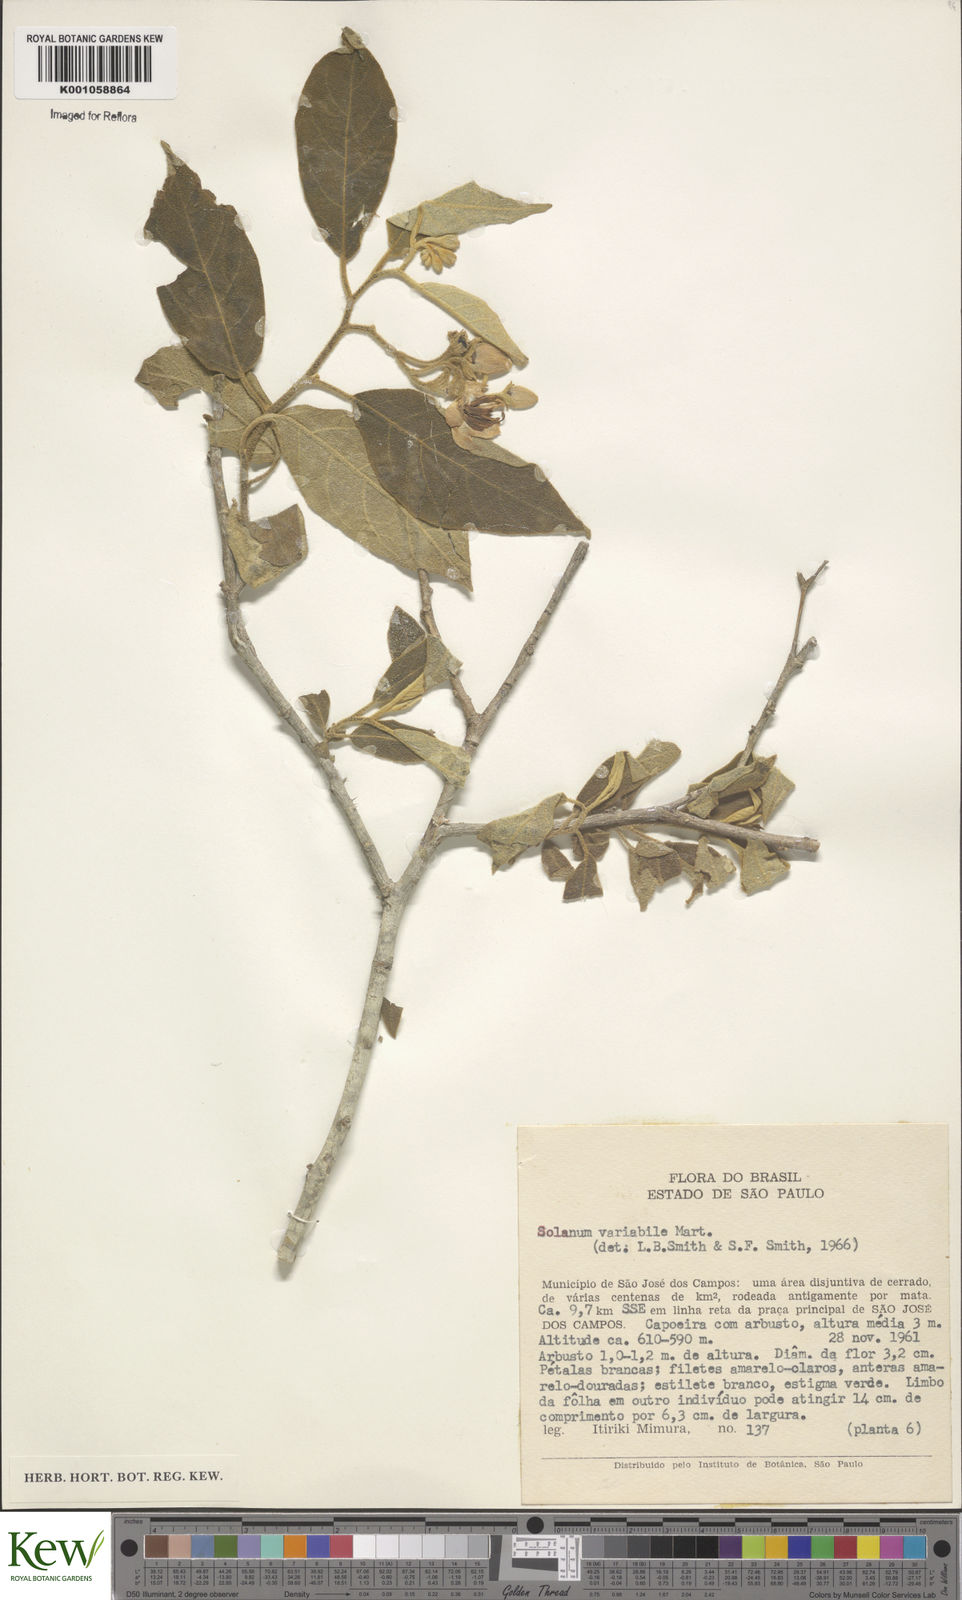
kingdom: Plantae
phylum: Tracheophyta
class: Magnoliopsida
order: Solanales
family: Solanaceae
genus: Solanum
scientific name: Solanum variabile
